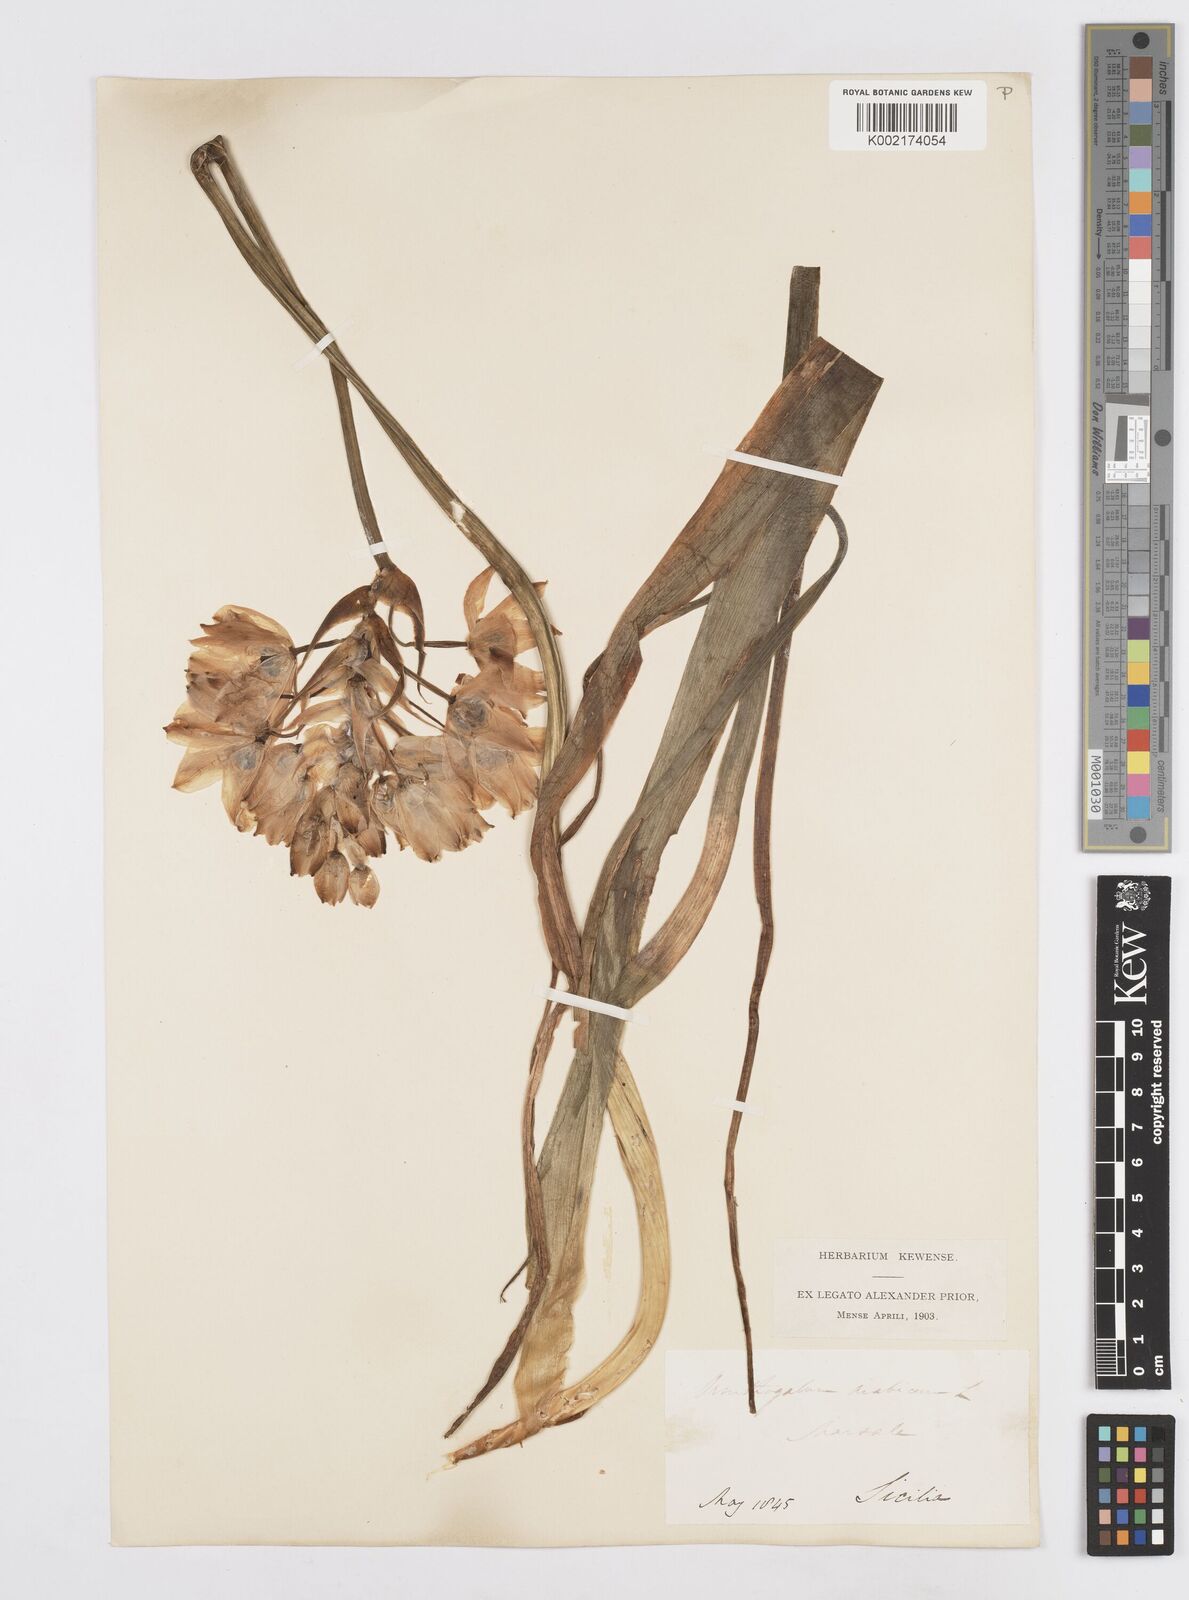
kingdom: Plantae
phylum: Tracheophyta
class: Liliopsida
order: Asparagales
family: Asparagaceae
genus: Ornithogalum
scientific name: Ornithogalum arabicum
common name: Arabian starflower
